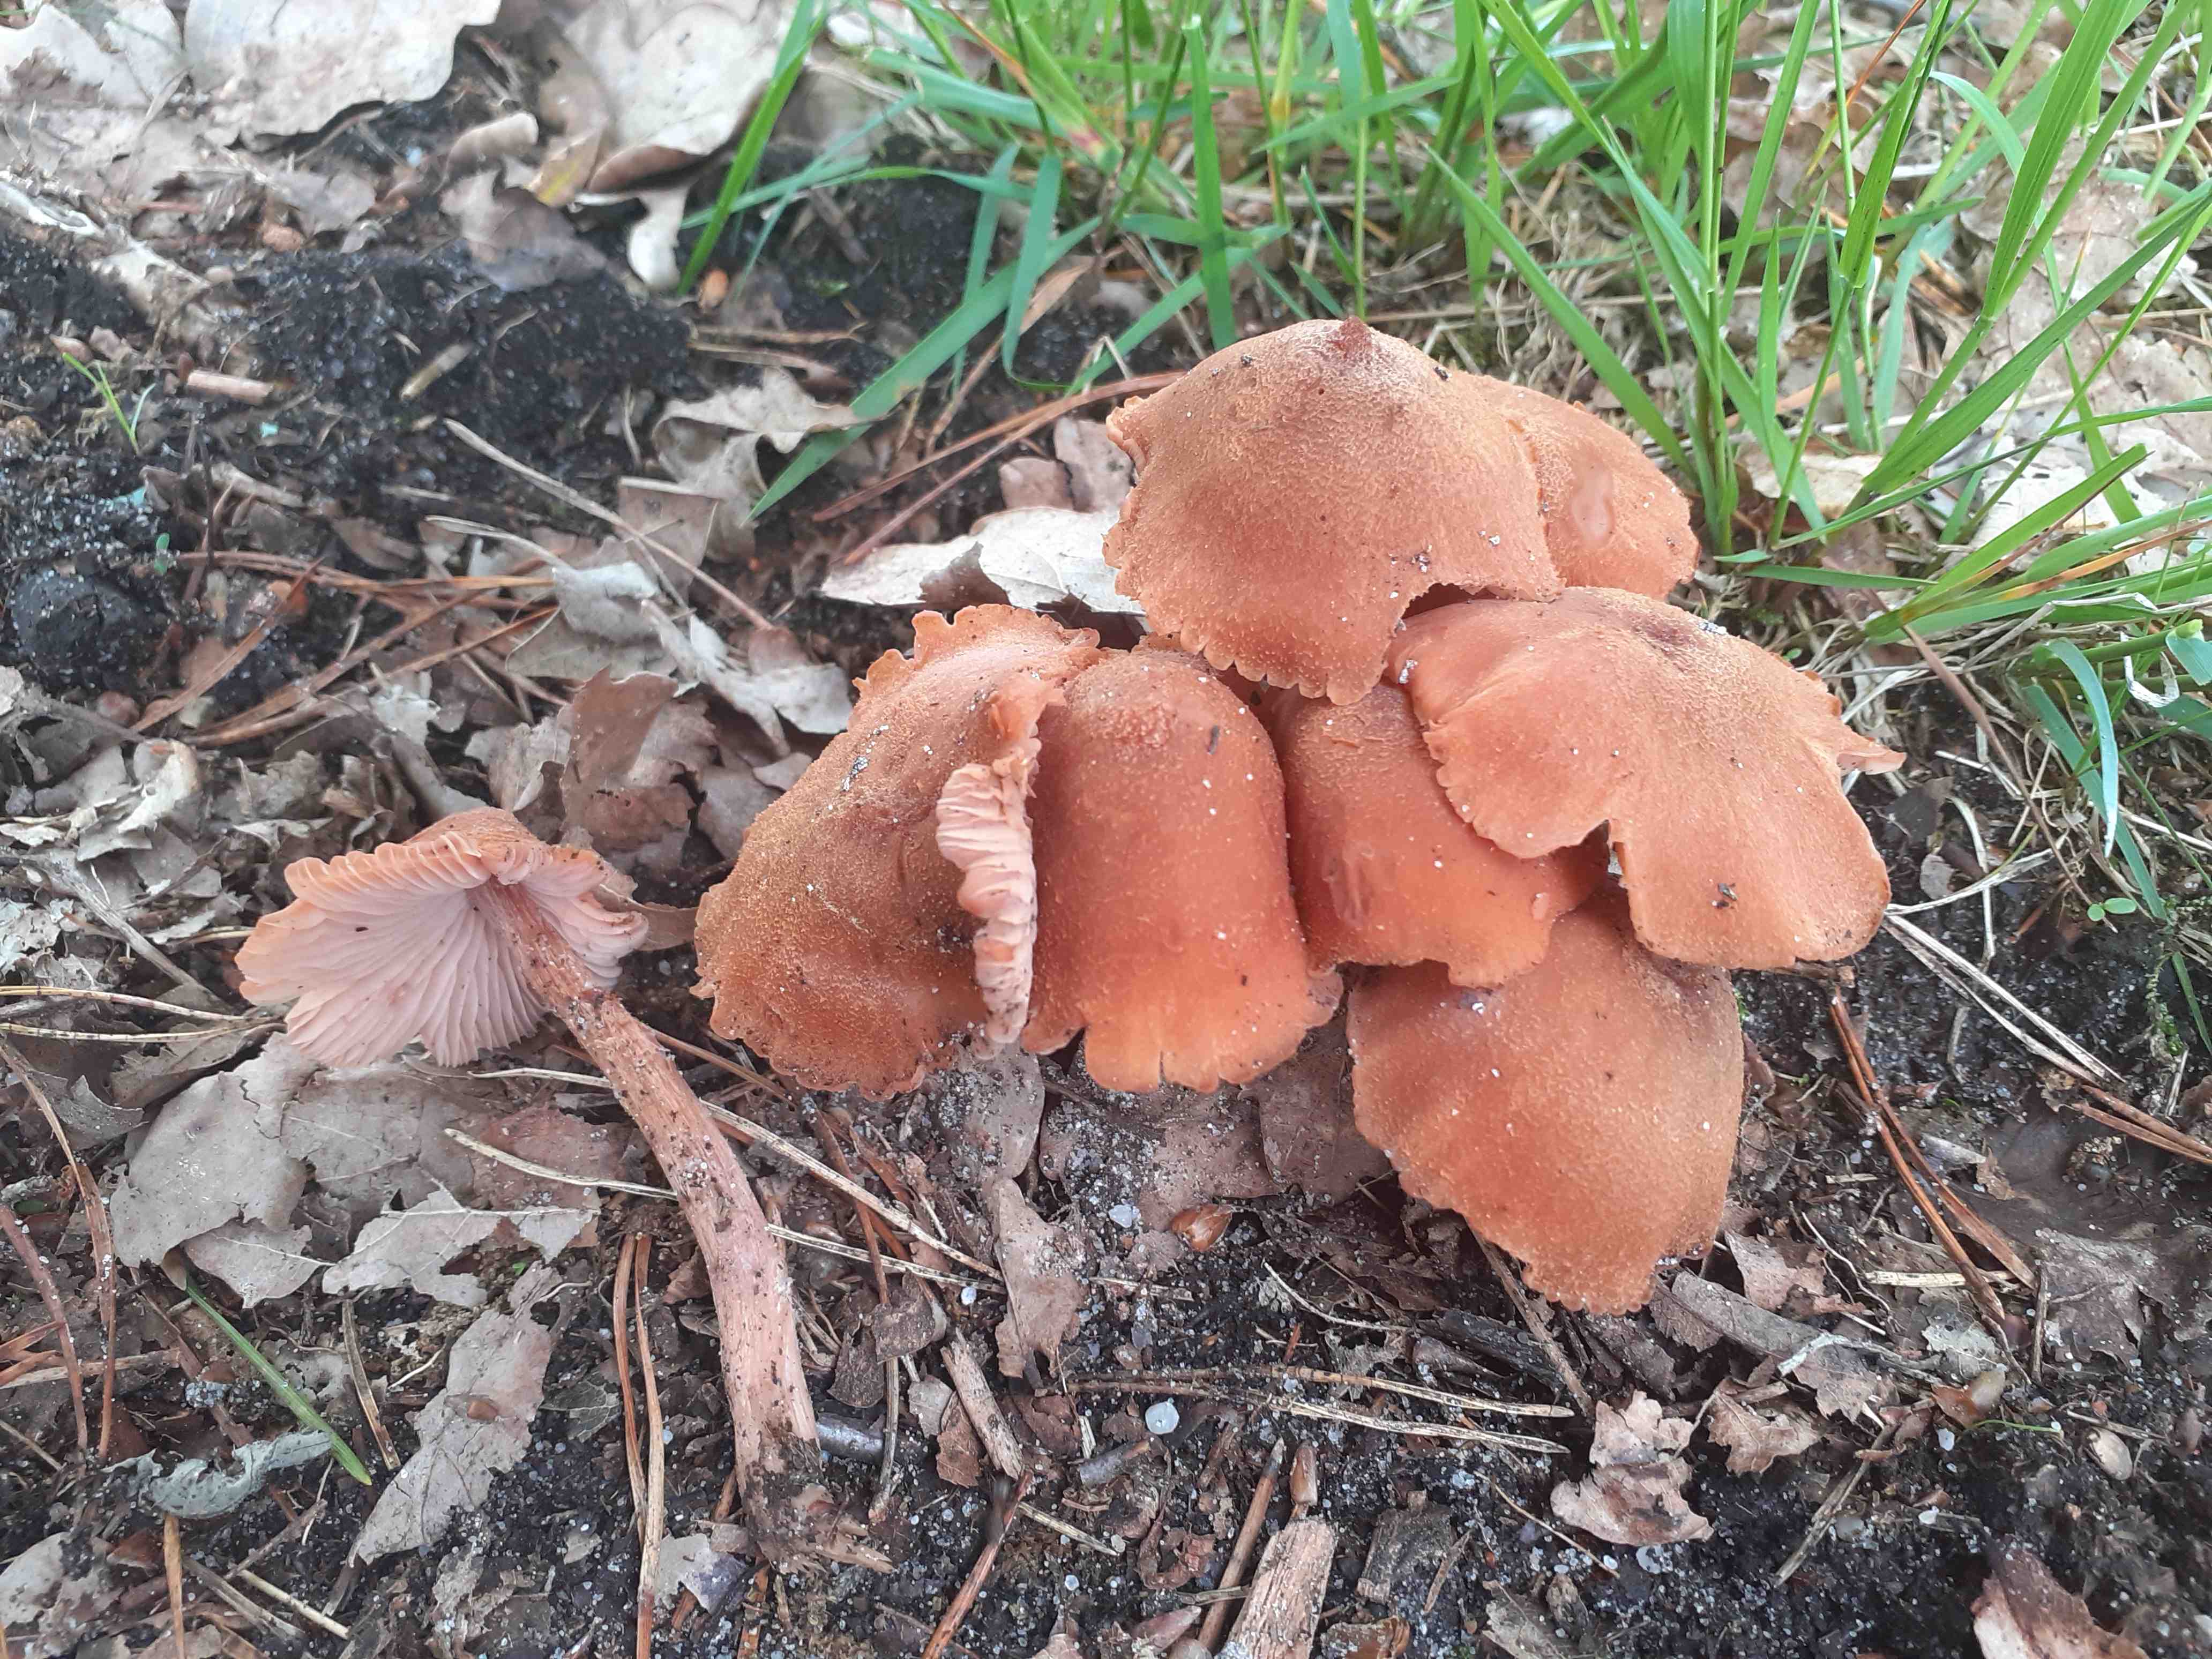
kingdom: Fungi
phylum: Basidiomycota
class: Agaricomycetes
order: Agaricales
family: Hydnangiaceae
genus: Laccaria
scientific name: Laccaria proxima
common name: stor ametysthat
